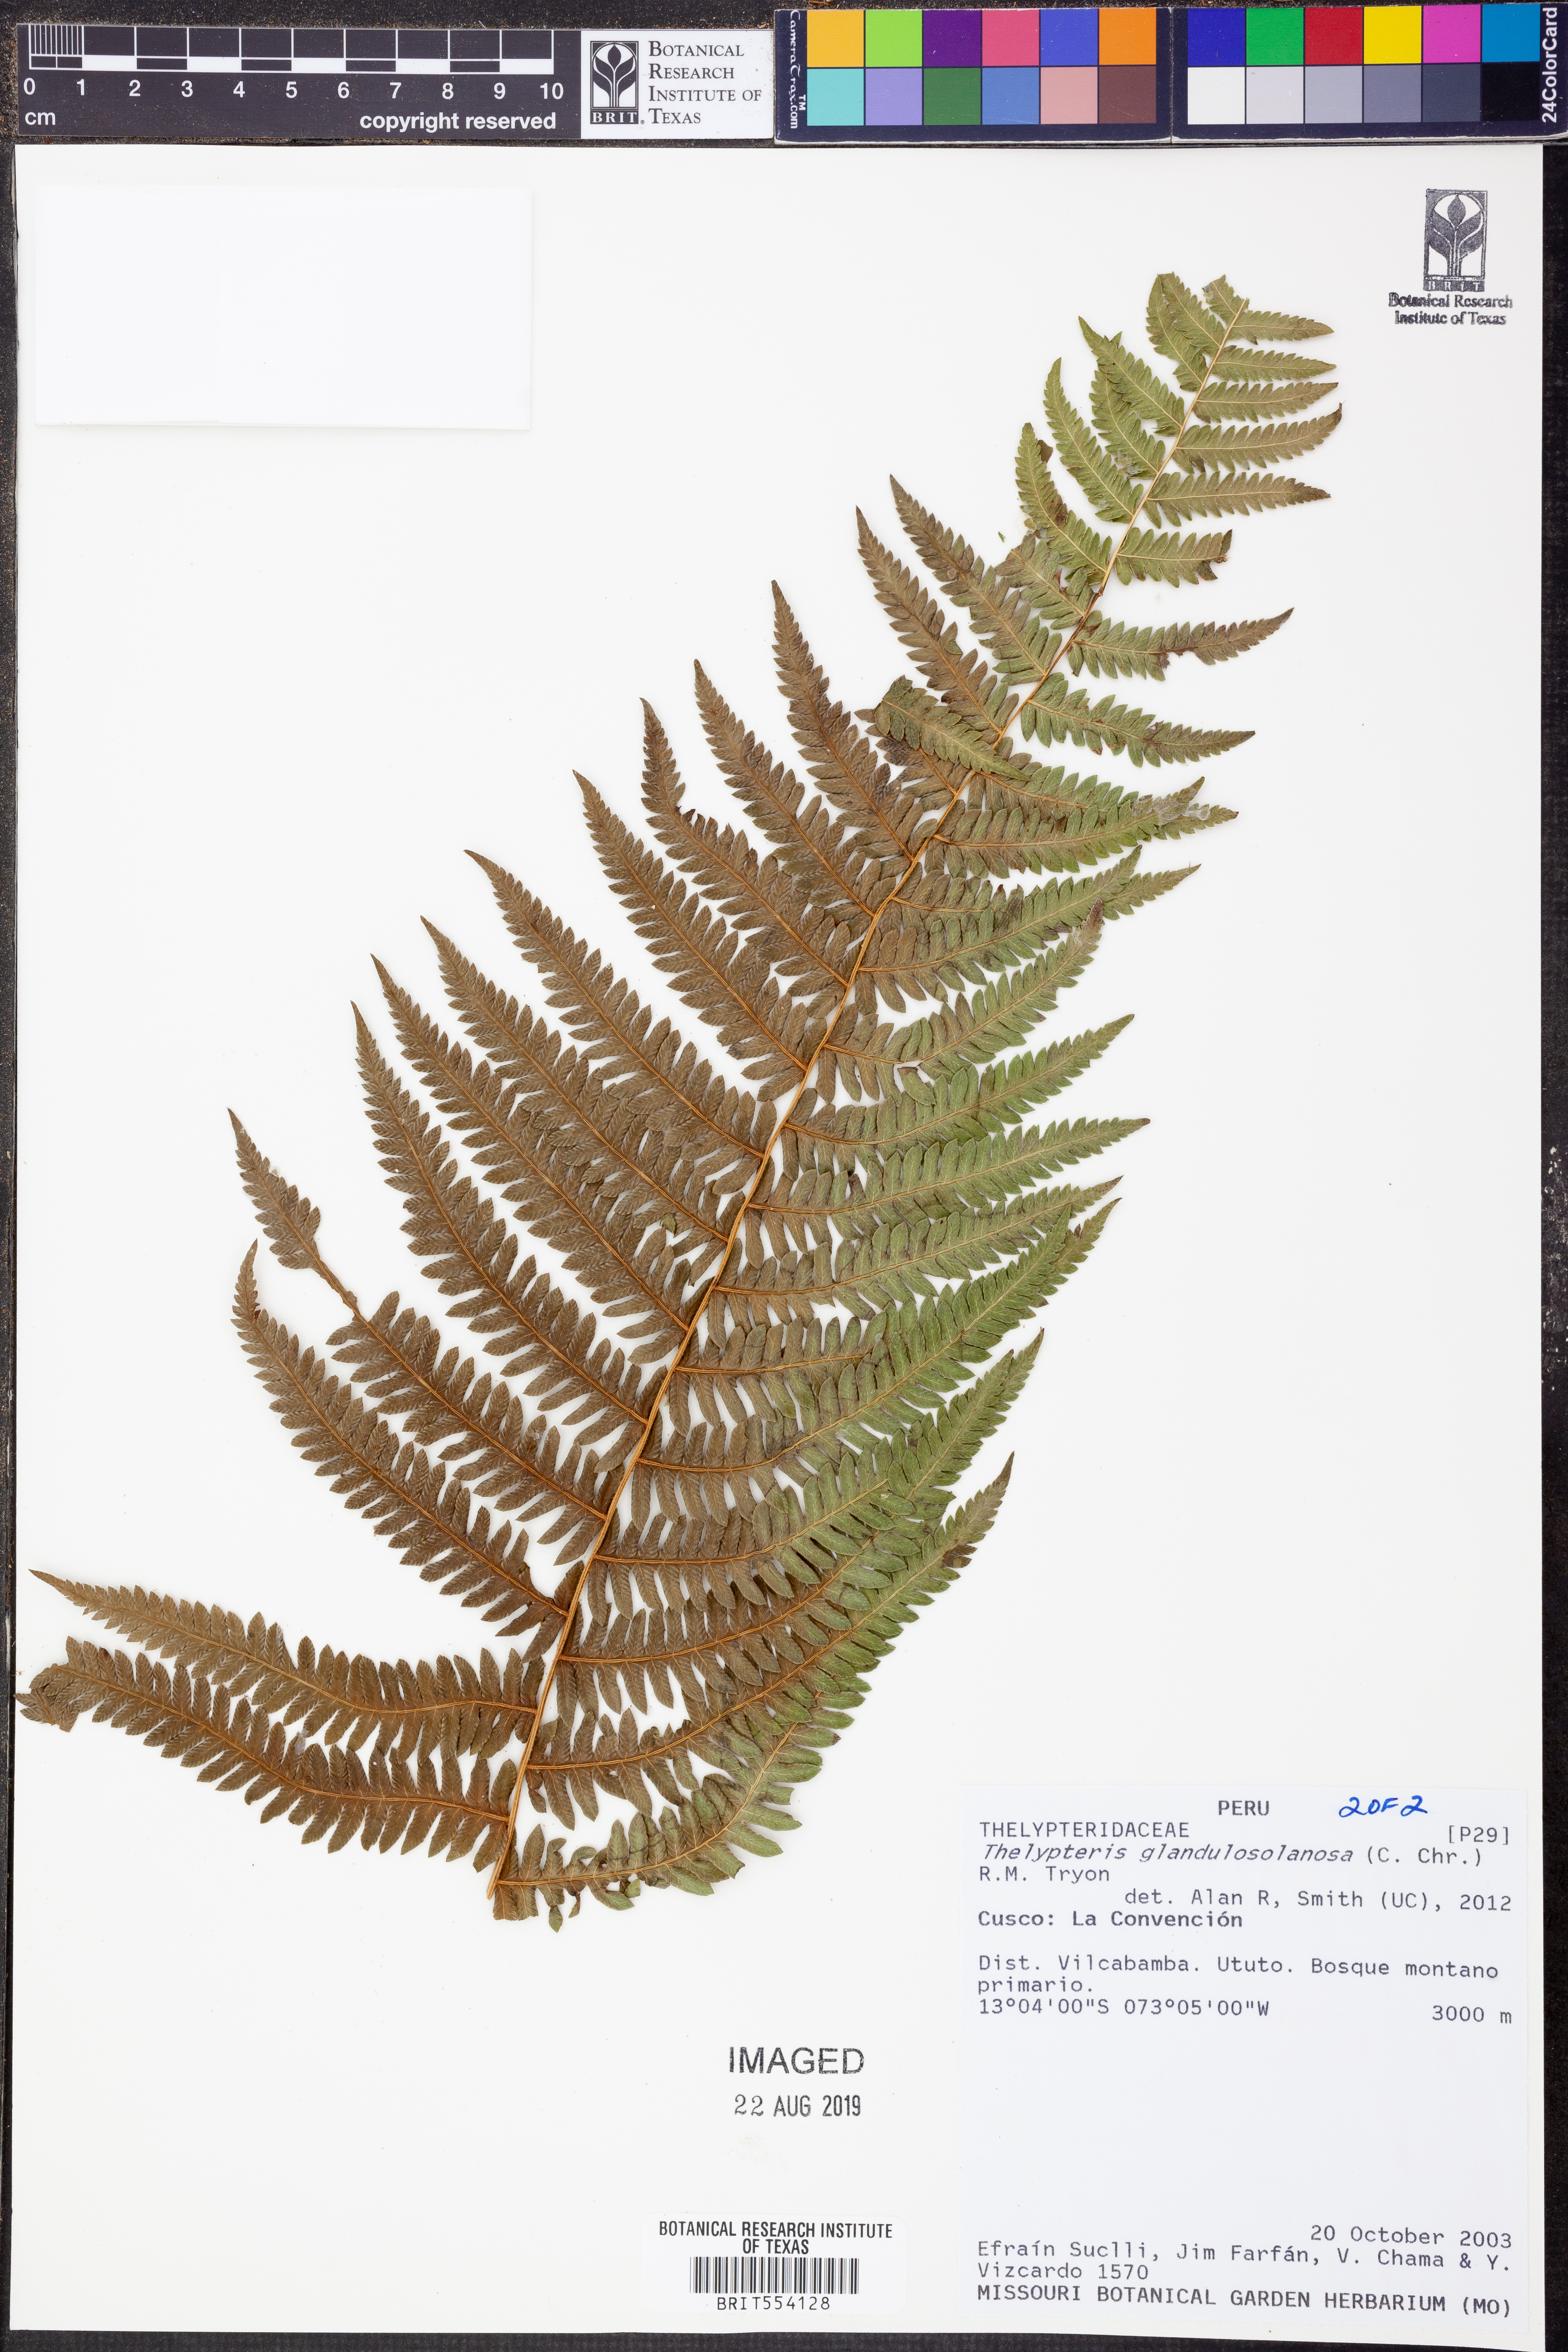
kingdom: Plantae
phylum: Tracheophyta
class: Polypodiopsida
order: Polypodiales
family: Thelypteridaceae
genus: Amauropelta
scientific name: Amauropelta glandulosolanosa
